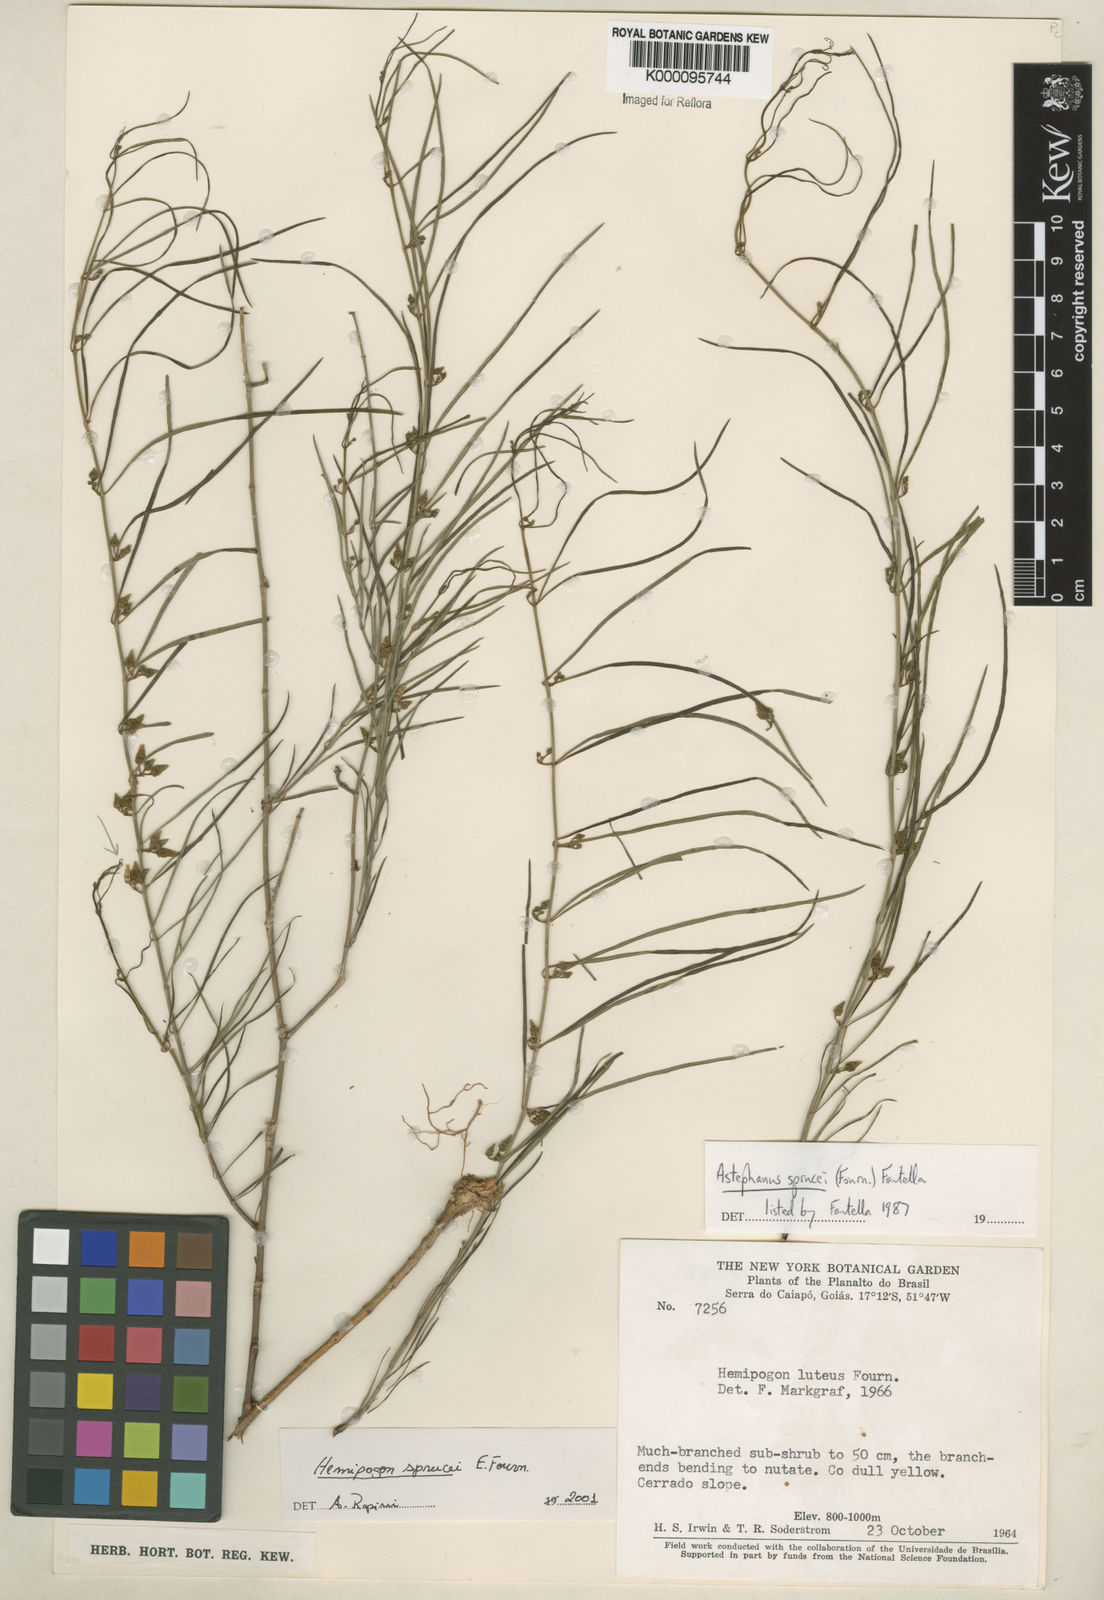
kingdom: Plantae
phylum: Tracheophyta
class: Magnoliopsida
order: Gentianales
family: Apocynaceae
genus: Hemipogon
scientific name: Hemipogon sprucei
